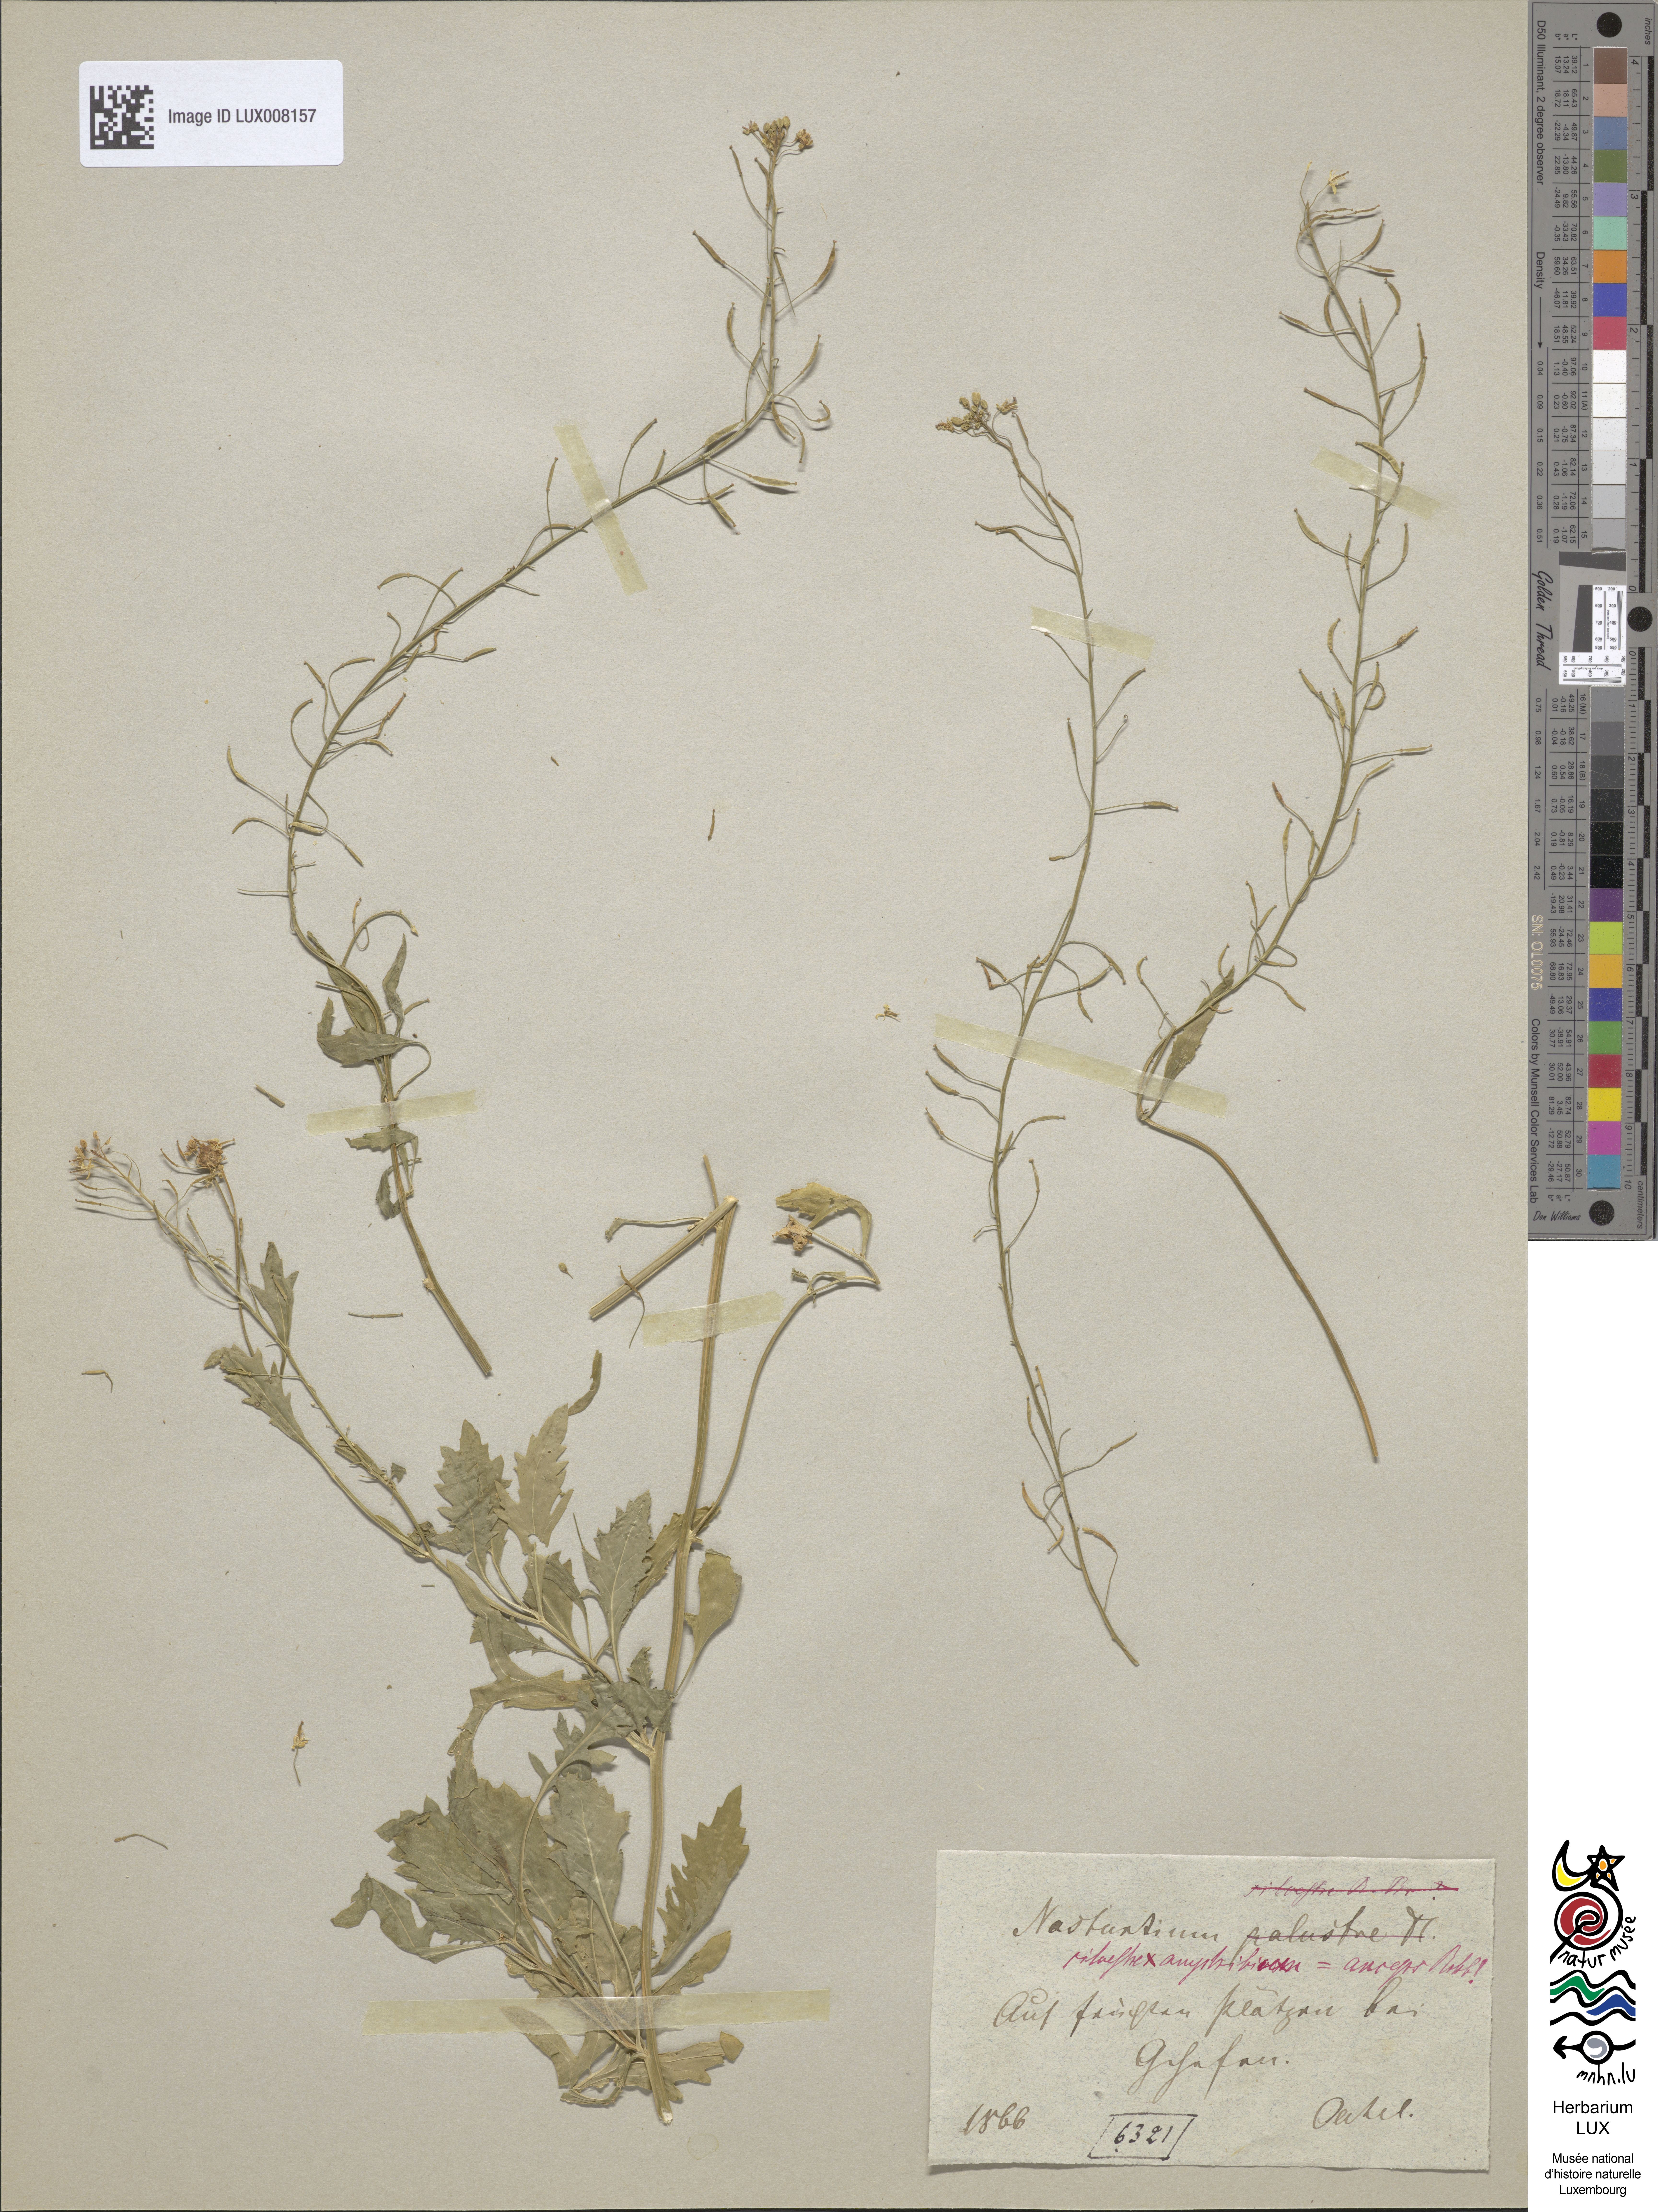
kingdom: Plantae
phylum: Tracheophyta
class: Magnoliopsida
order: Brassicales
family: Brassicaceae
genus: Rorippa
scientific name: Rorippa anceps
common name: Rorippa
